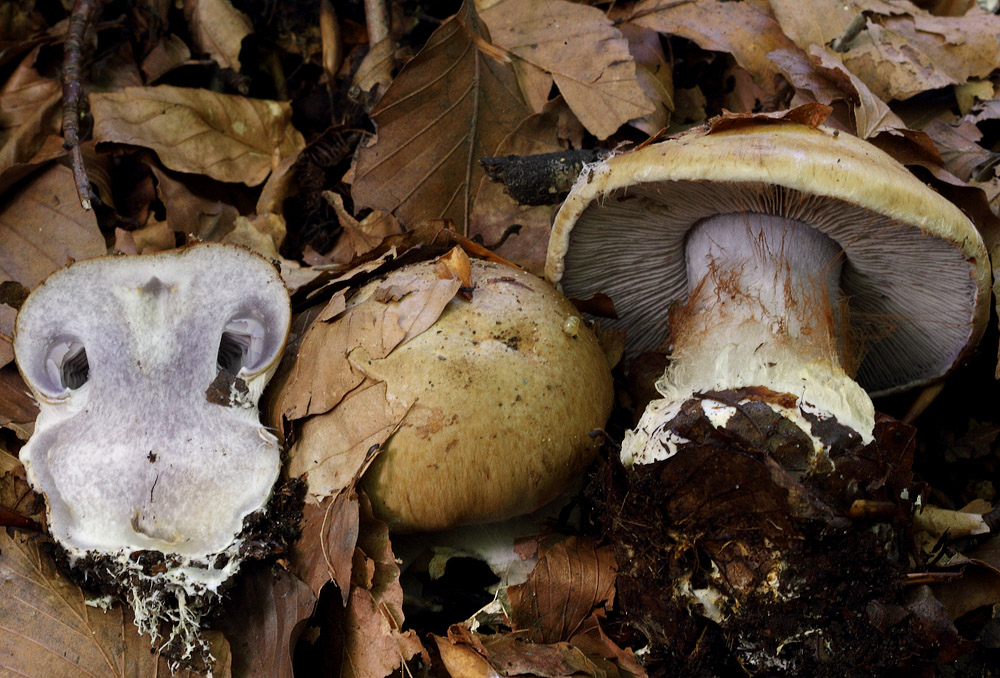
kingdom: Fungi
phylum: Basidiomycota
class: Agaricomycetes
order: Agaricales
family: Cortinariaceae
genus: Cortinarius
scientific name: Cortinarius anserinus
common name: bøge-slørhat
